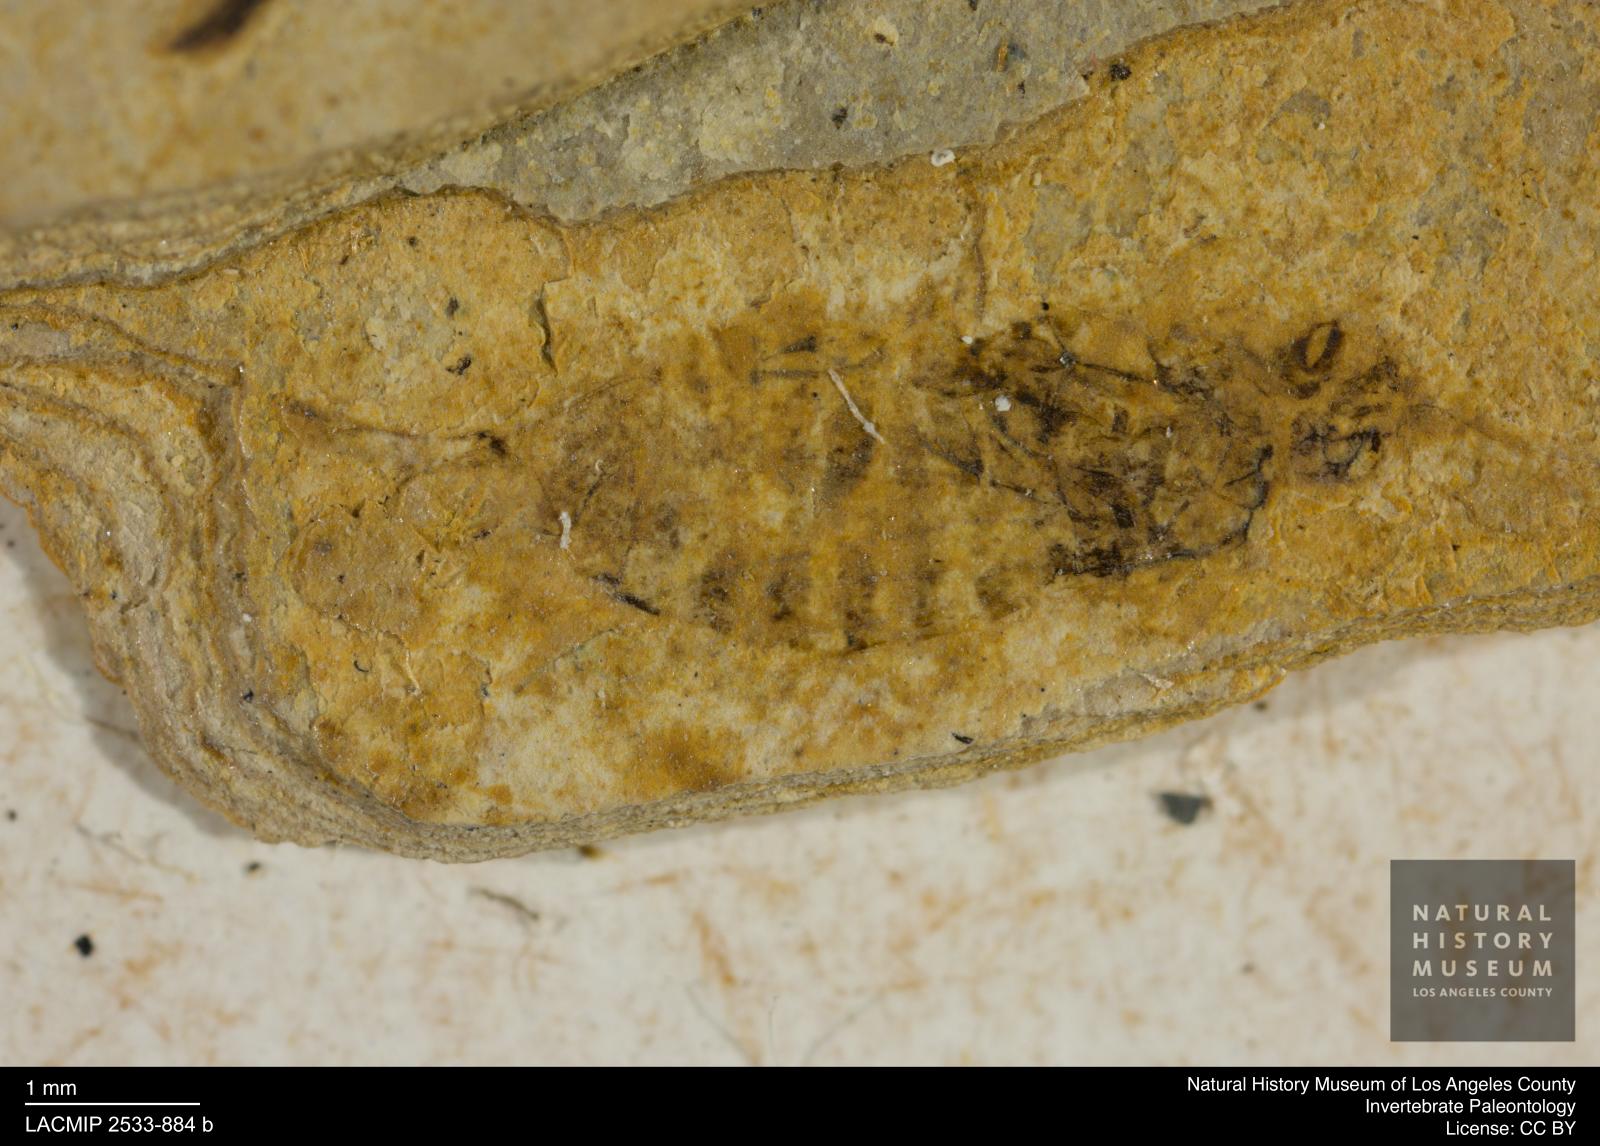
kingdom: Animalia
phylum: Arthropoda
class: Insecta
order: Hymenoptera
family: Xyelidae
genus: Xyela
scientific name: Xyela magna
